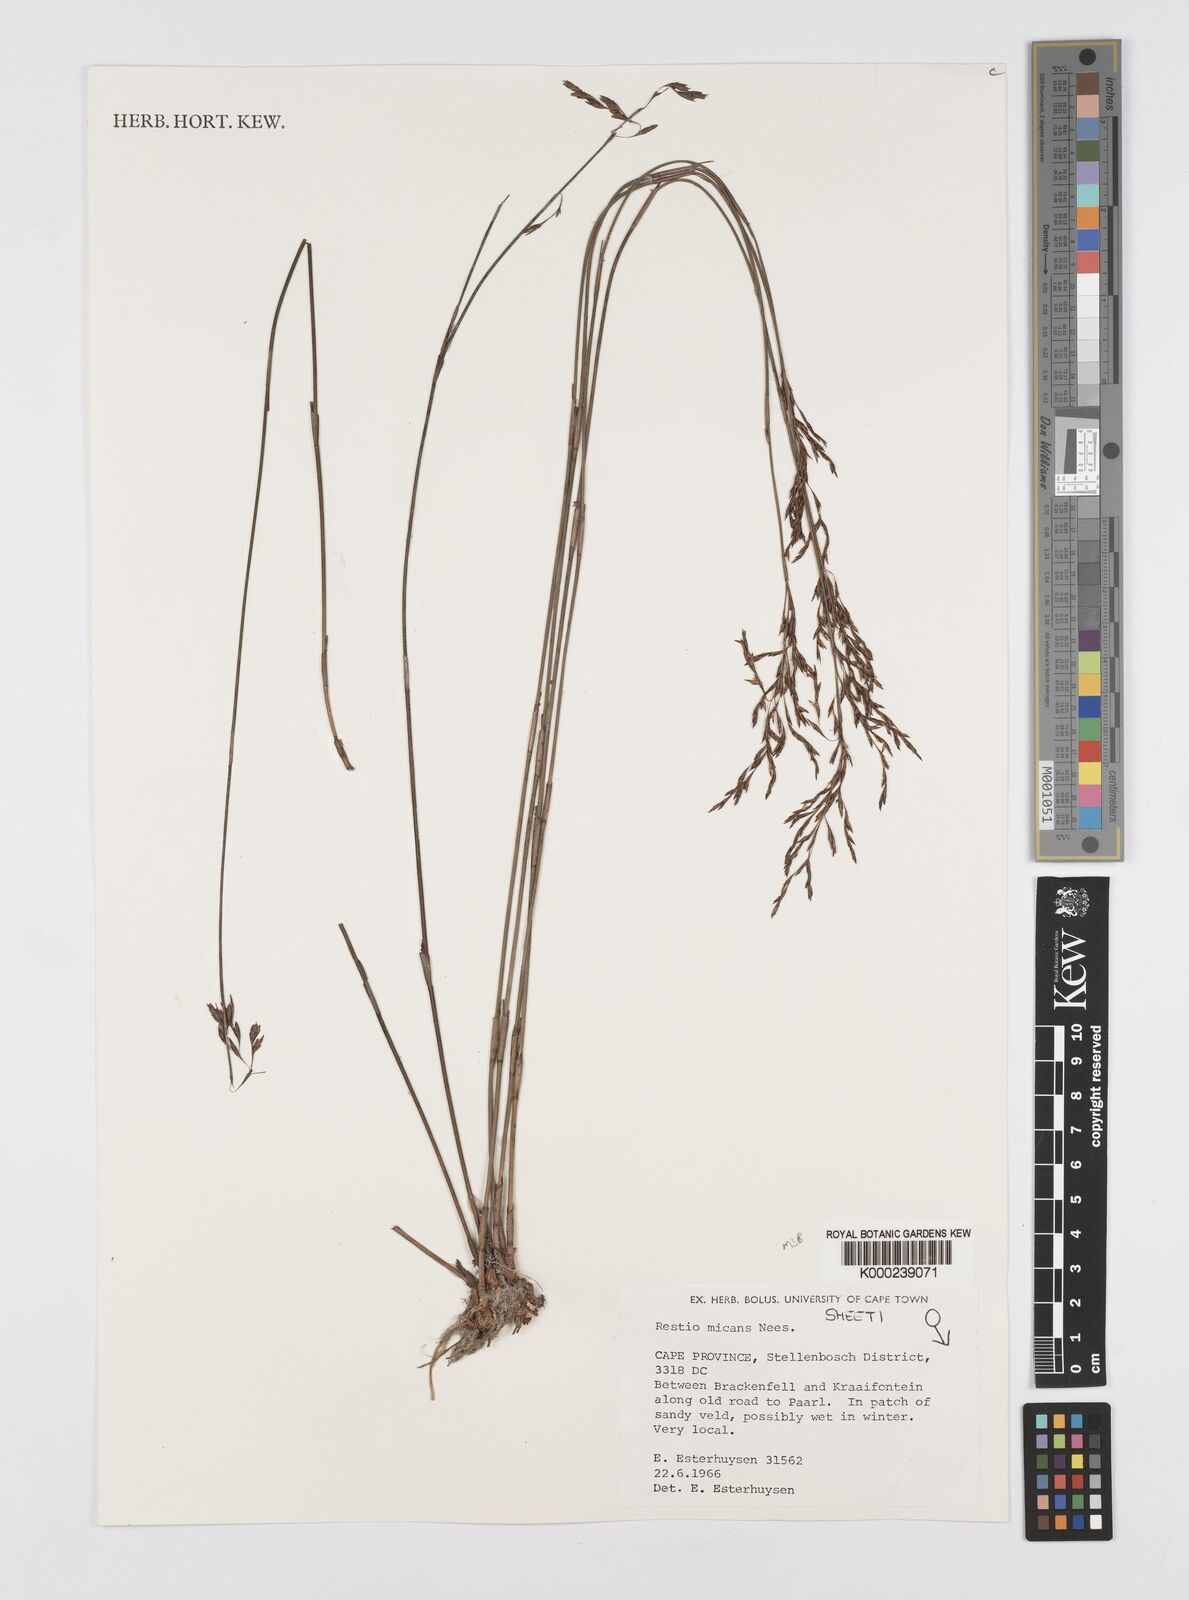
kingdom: Plantae
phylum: Tracheophyta
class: Liliopsida
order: Poales
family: Restionaceae
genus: Restio
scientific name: Restio micans
